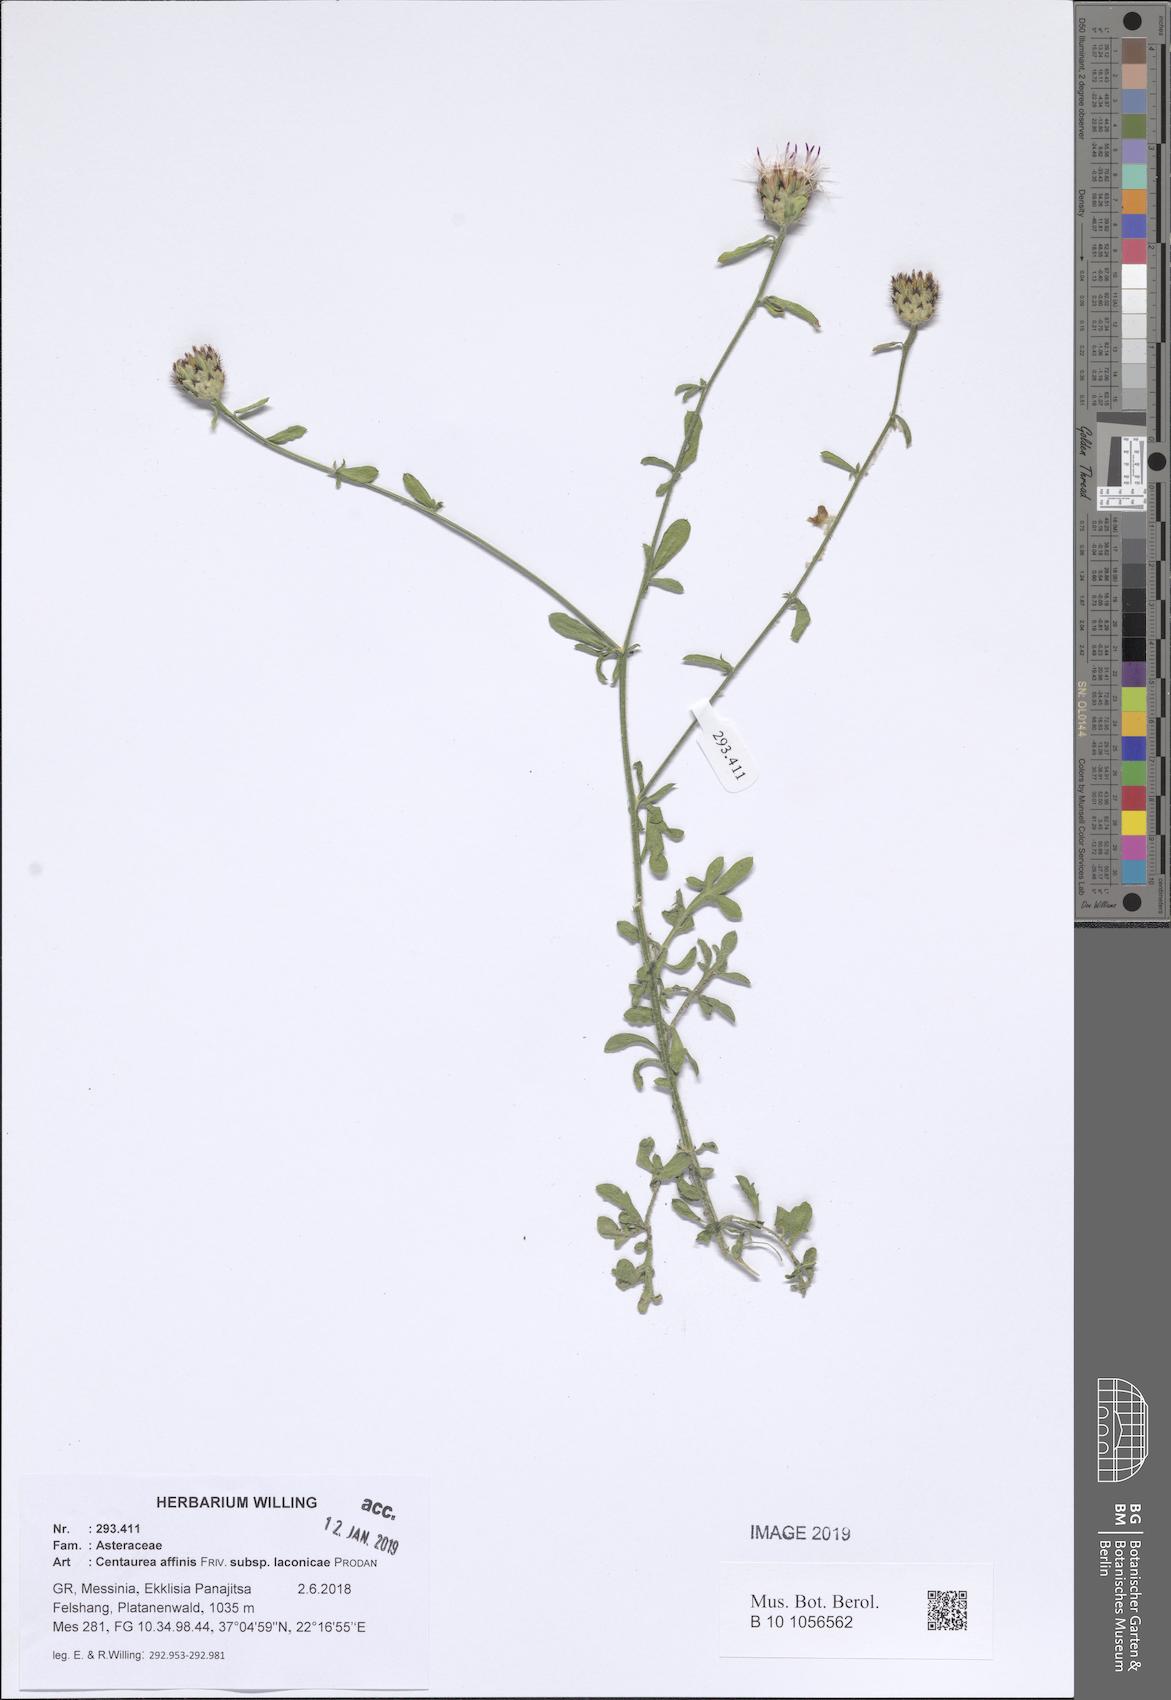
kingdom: Plantae
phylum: Tracheophyta
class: Magnoliopsida
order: Asterales
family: Asteraceae
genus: Centaurea
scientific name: Centaurea affinis
